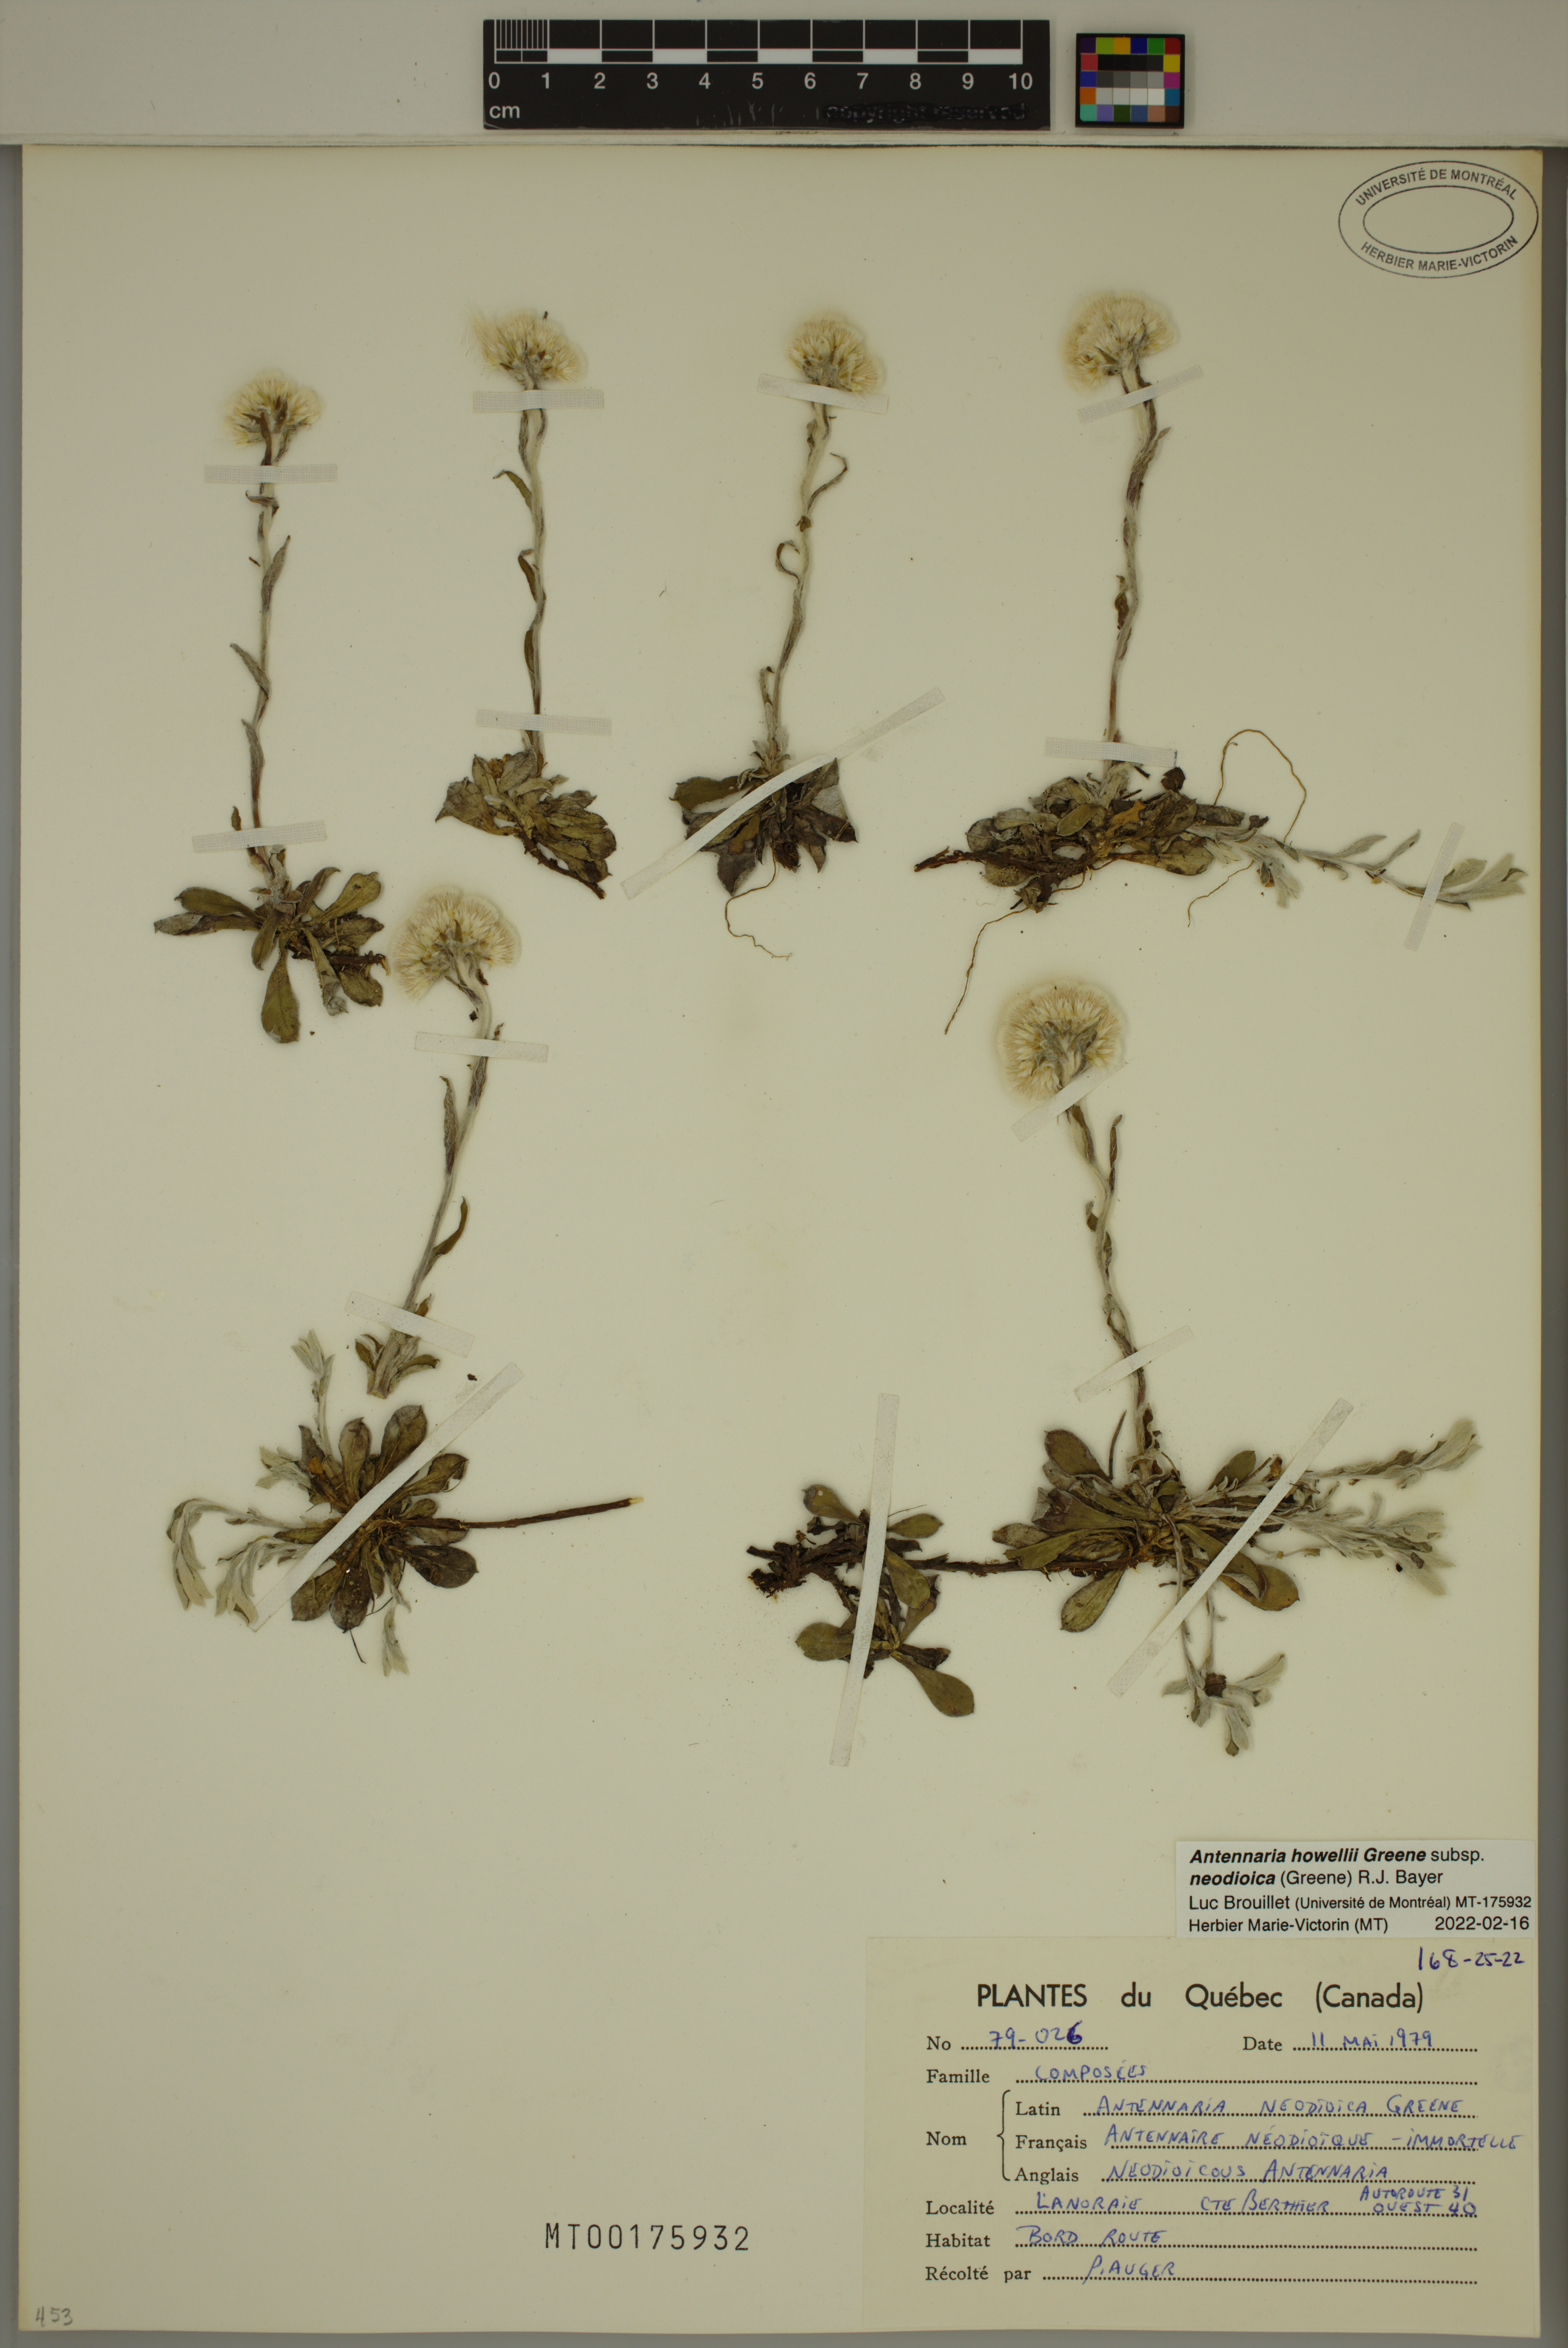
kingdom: Plantae
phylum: Tracheophyta
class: Magnoliopsida
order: Asterales
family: Asteraceae
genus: Antennaria
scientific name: Antennaria howellii
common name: Howell's pussytoes
